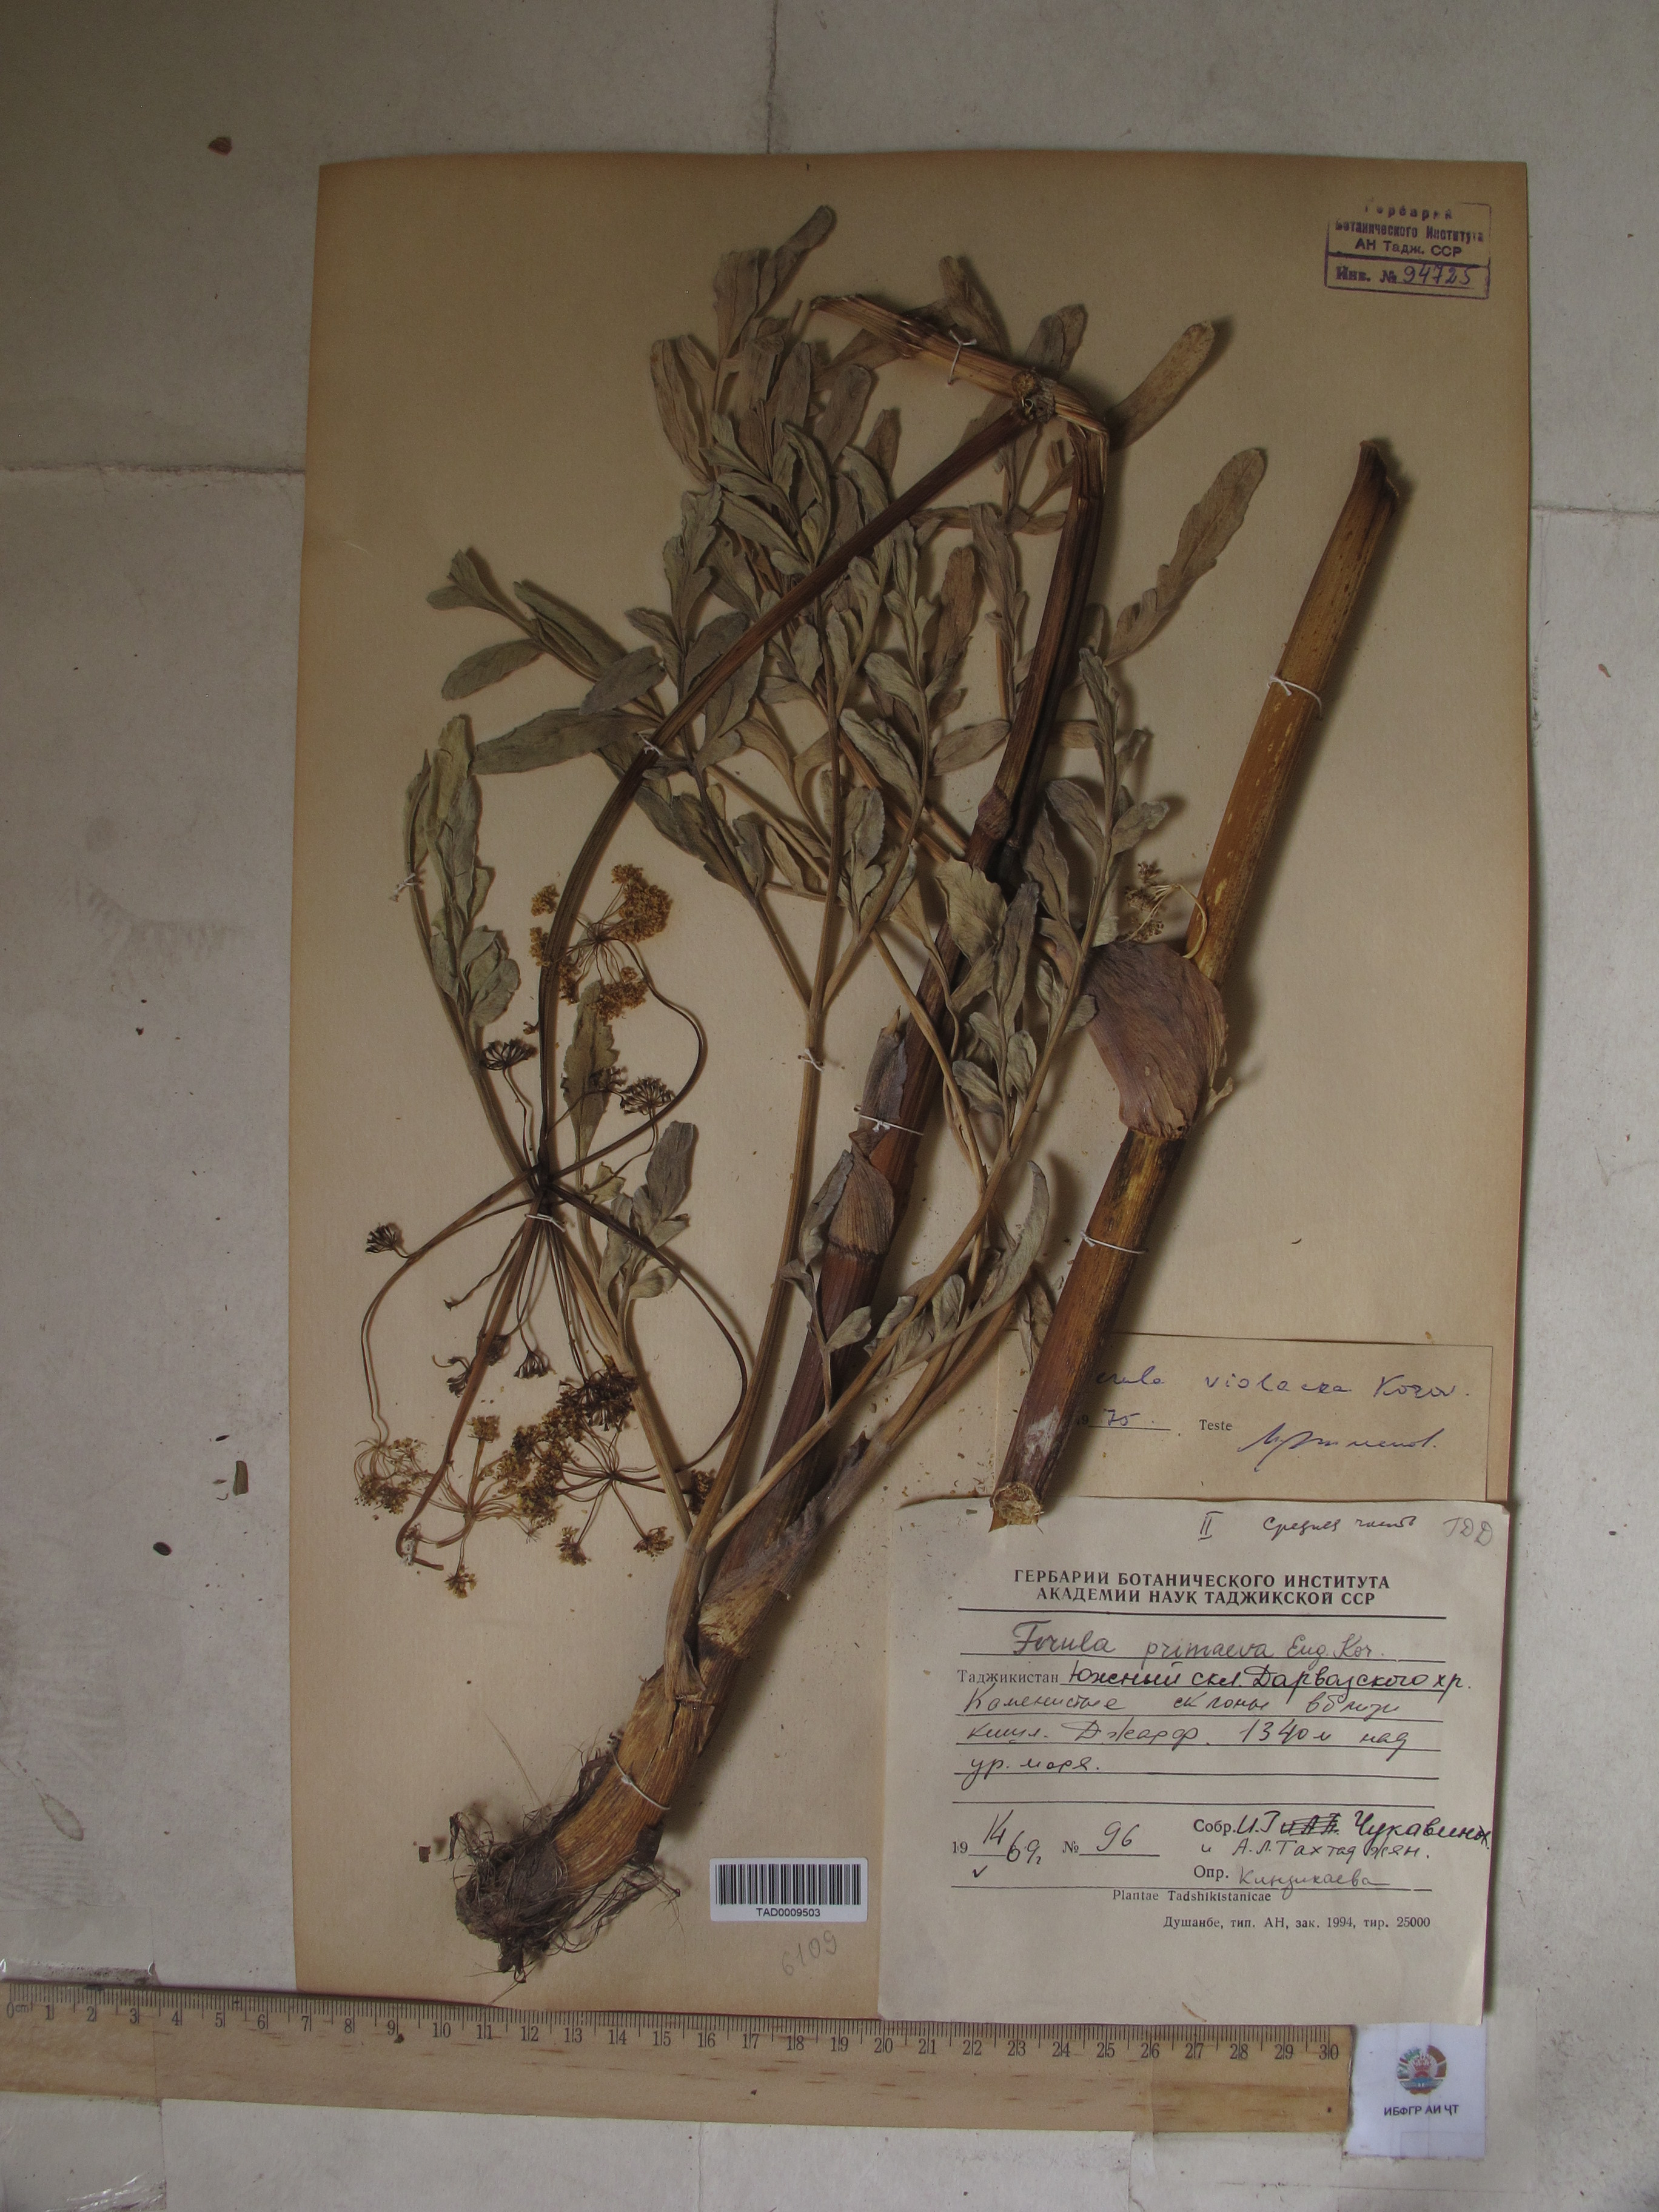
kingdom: Plantae
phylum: Tracheophyta
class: Magnoliopsida
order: Apiales
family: Apiaceae
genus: Ferula
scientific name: Ferula violacea
